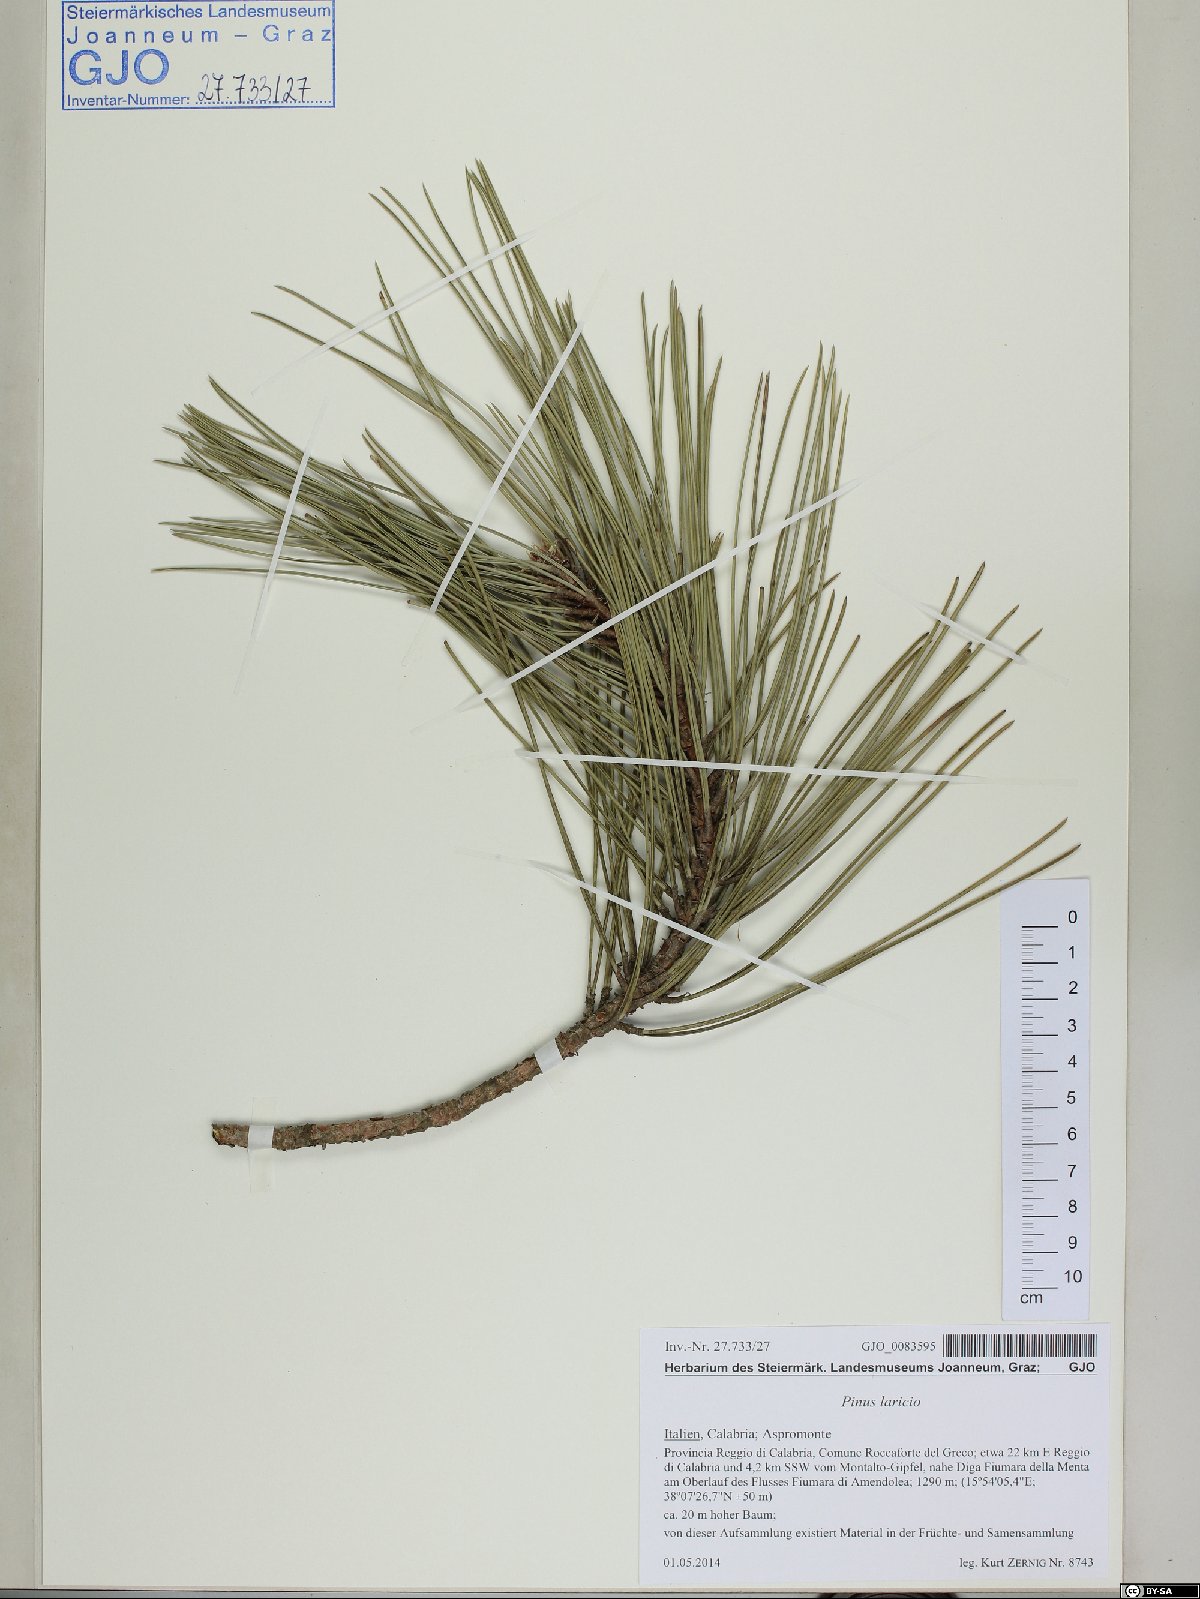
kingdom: Plantae
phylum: Tracheophyta
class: Pinopsida
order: Pinales
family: Pinaceae
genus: Pinus
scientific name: Pinus nigra
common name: Austrian pine
